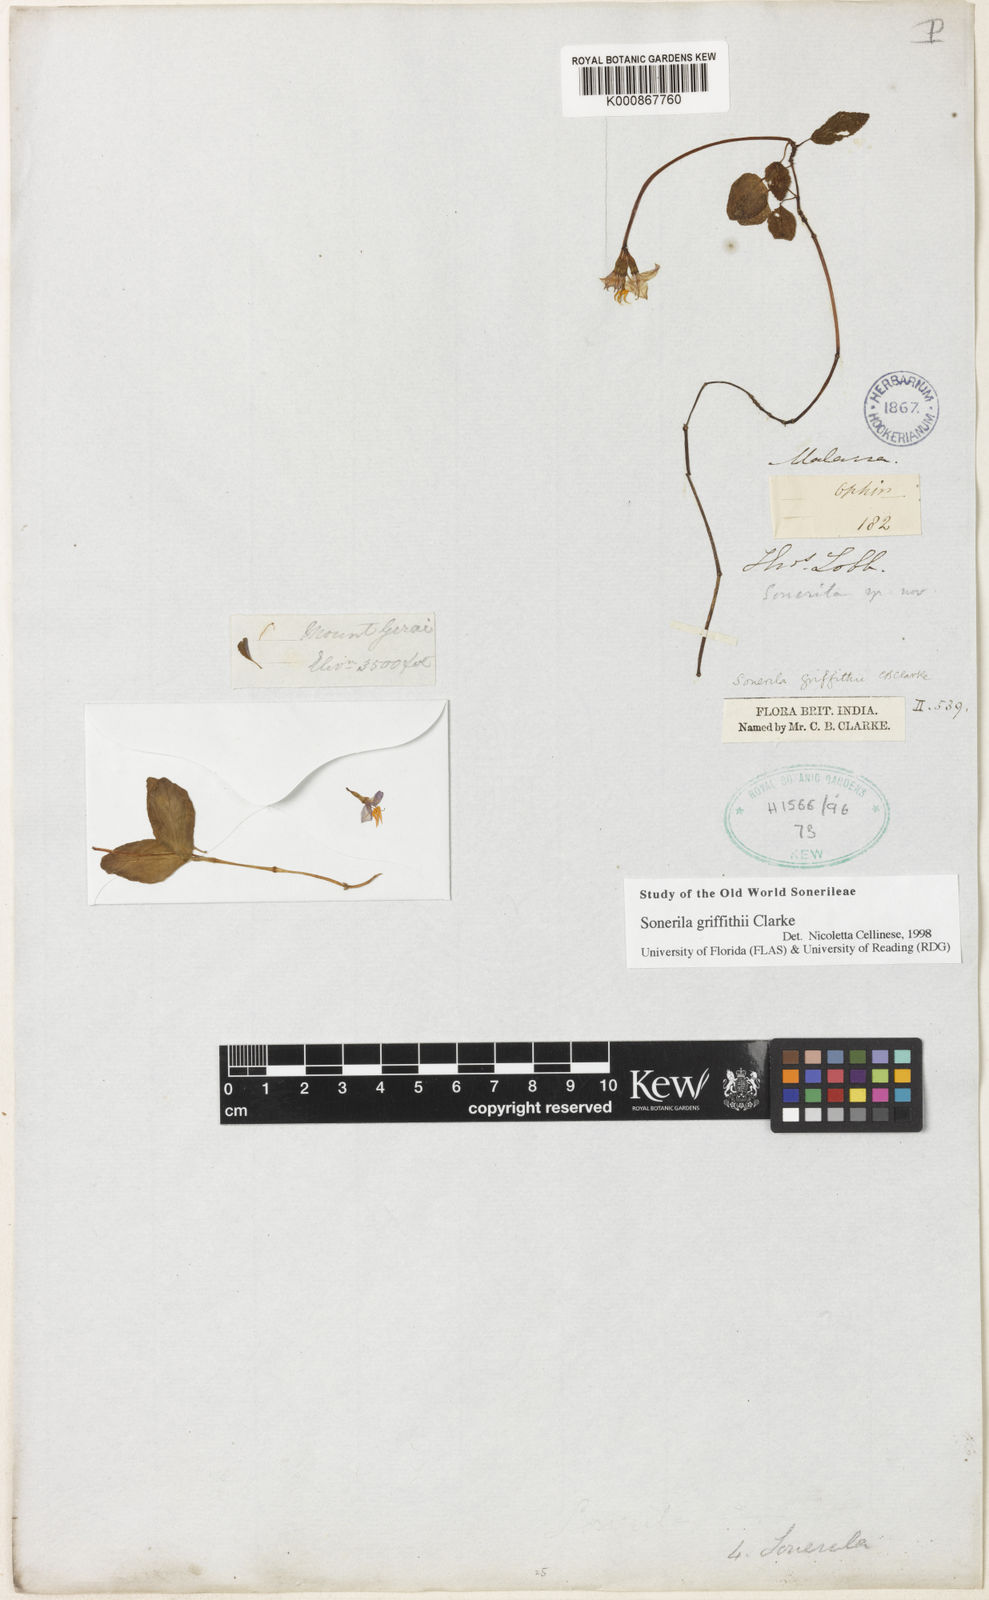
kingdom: Plantae
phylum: Tracheophyta
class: Magnoliopsida
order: Myrtales
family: Melastomataceae
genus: Sonerila
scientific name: Sonerila griffithii
